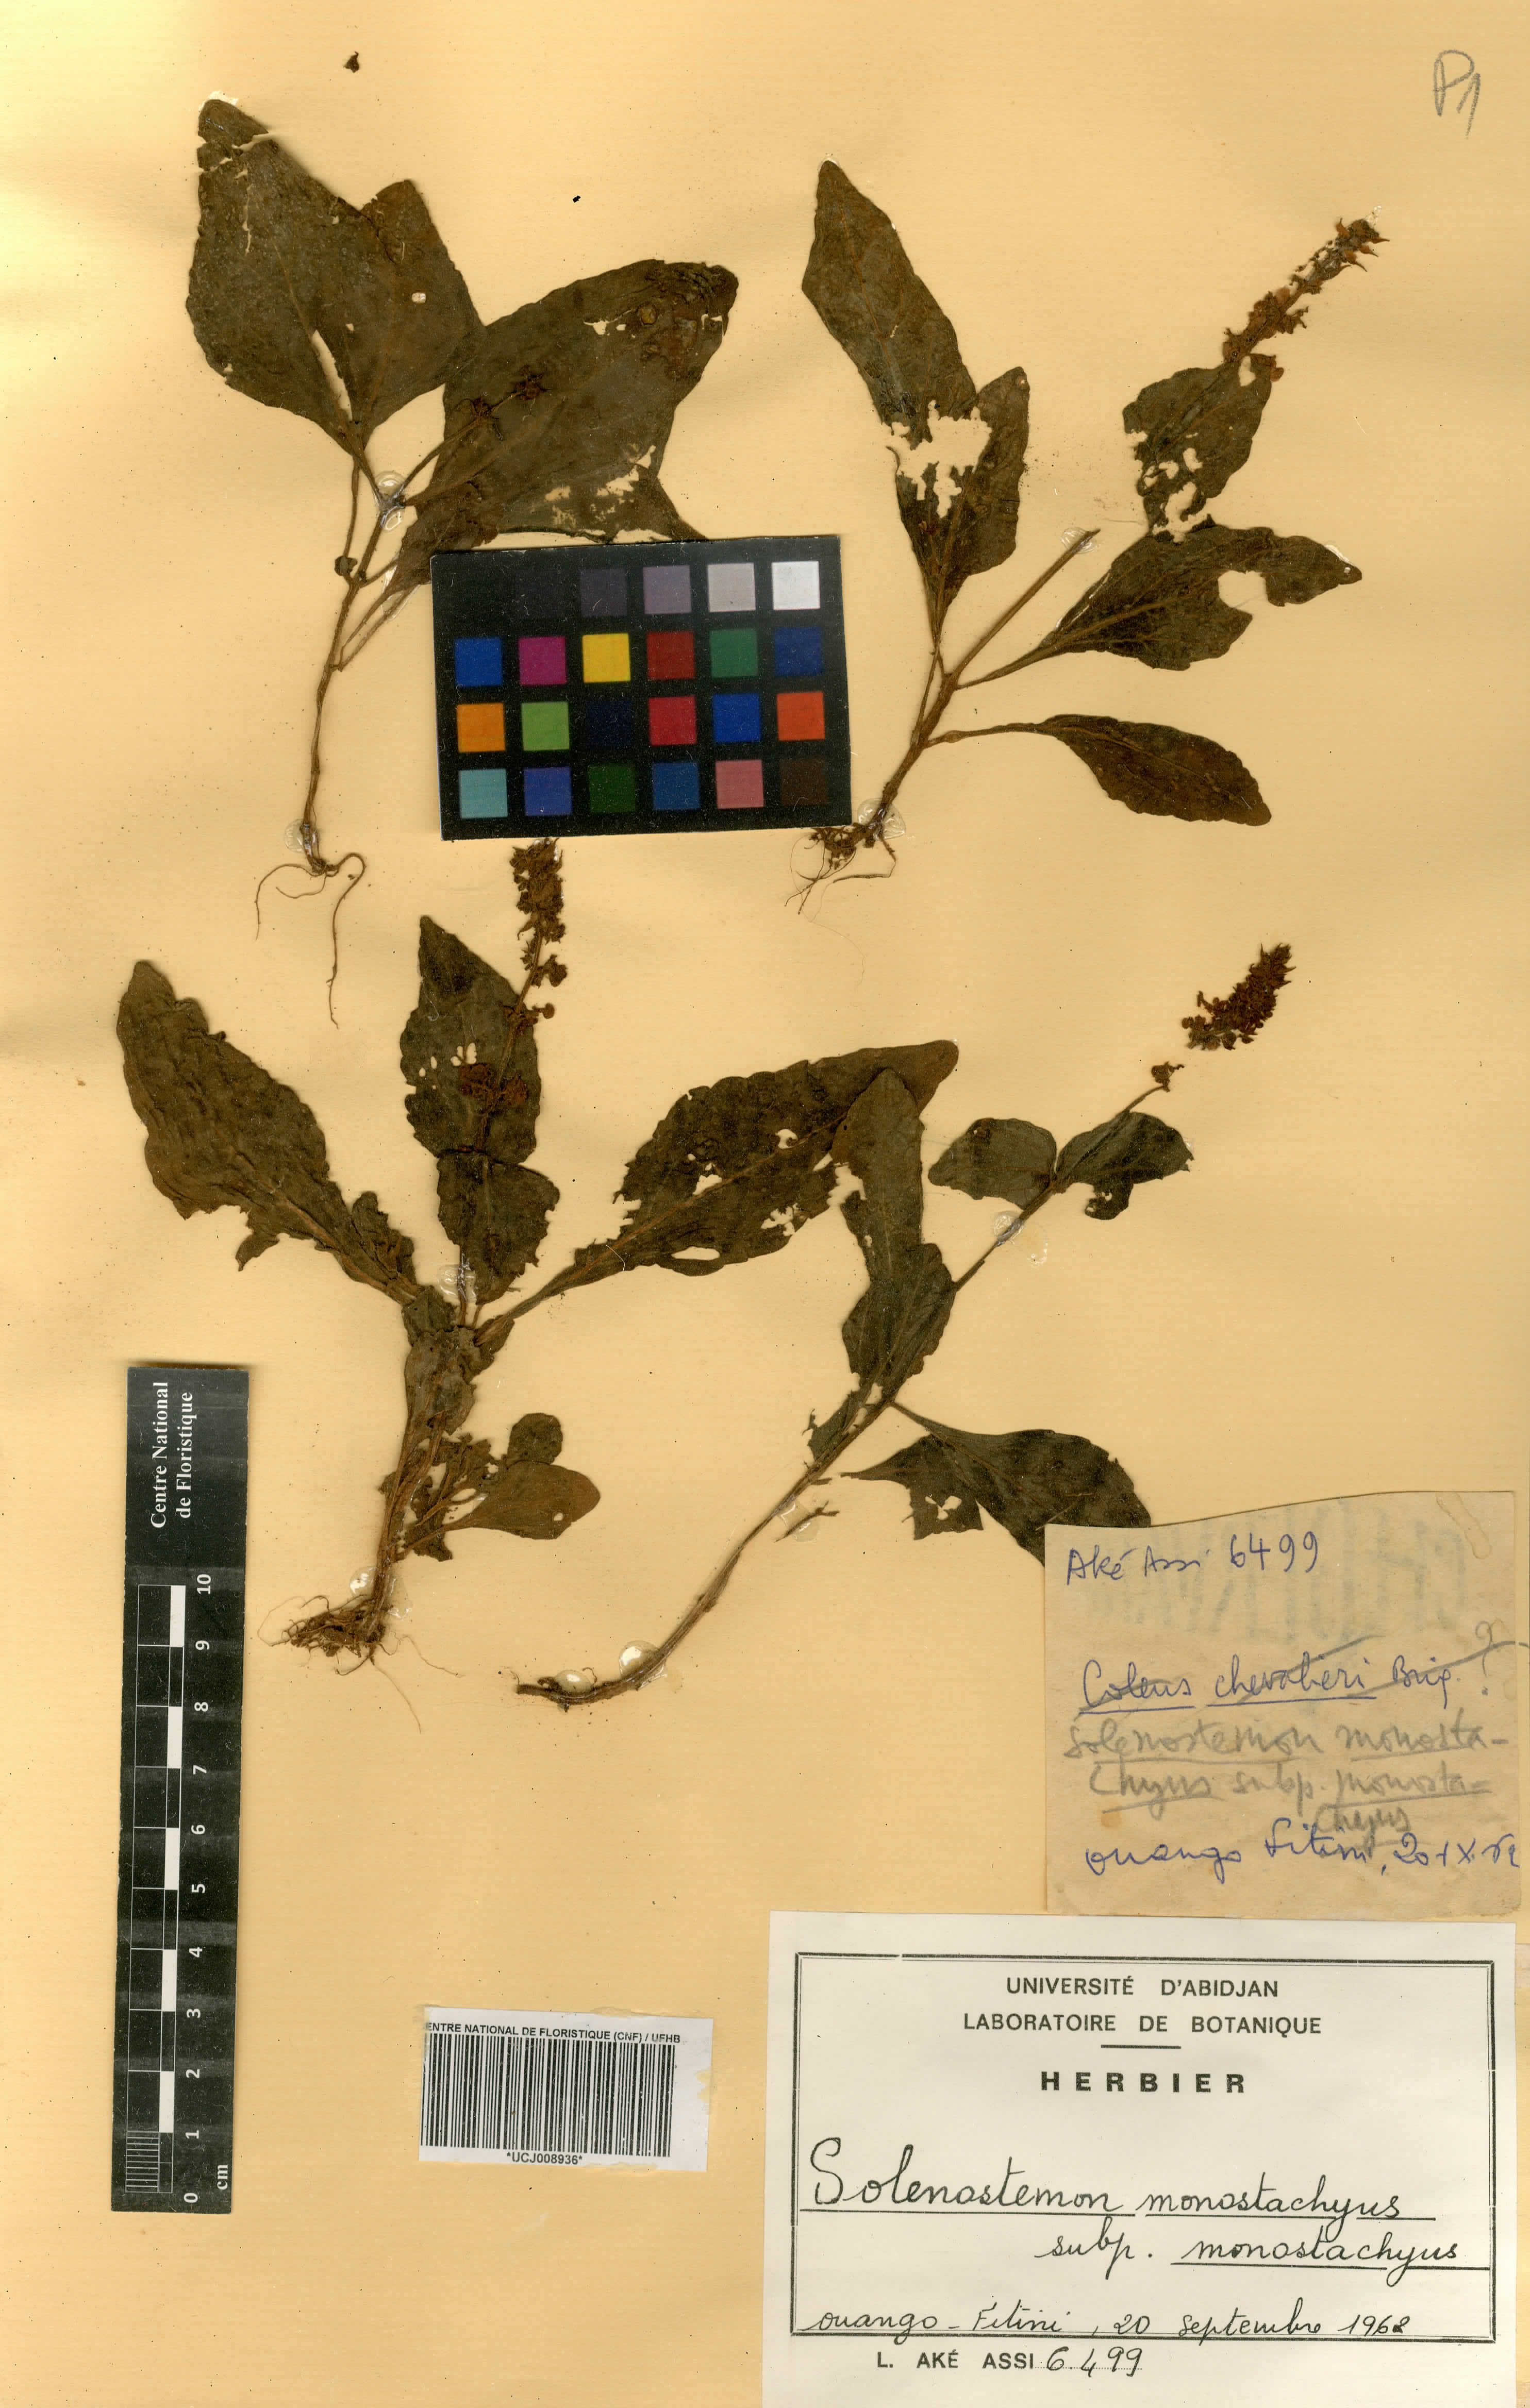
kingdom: Plantae
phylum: Tracheophyta
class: Magnoliopsida
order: Lamiales
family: Lamiaceae
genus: Coleus
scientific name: Coleus monostachyus
